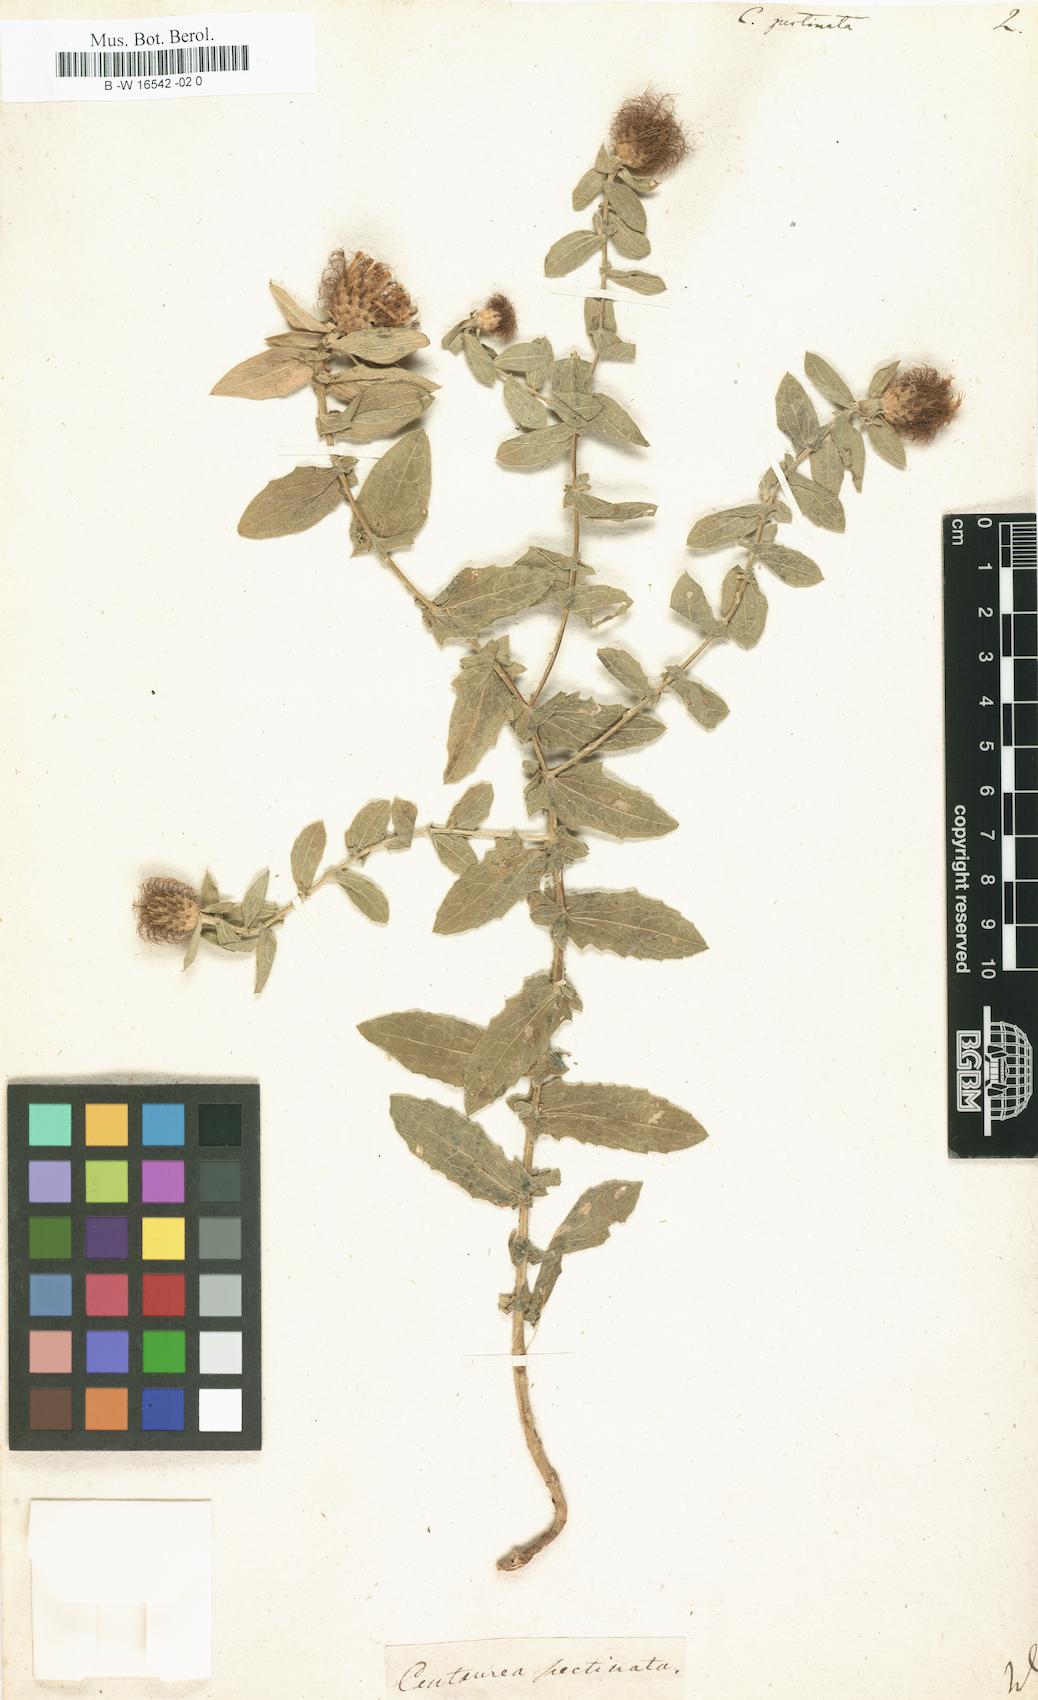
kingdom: Plantae
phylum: Tracheophyta
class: Magnoliopsida
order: Asterales
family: Asteraceae
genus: Centaurea
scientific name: Centaurea pectinata
